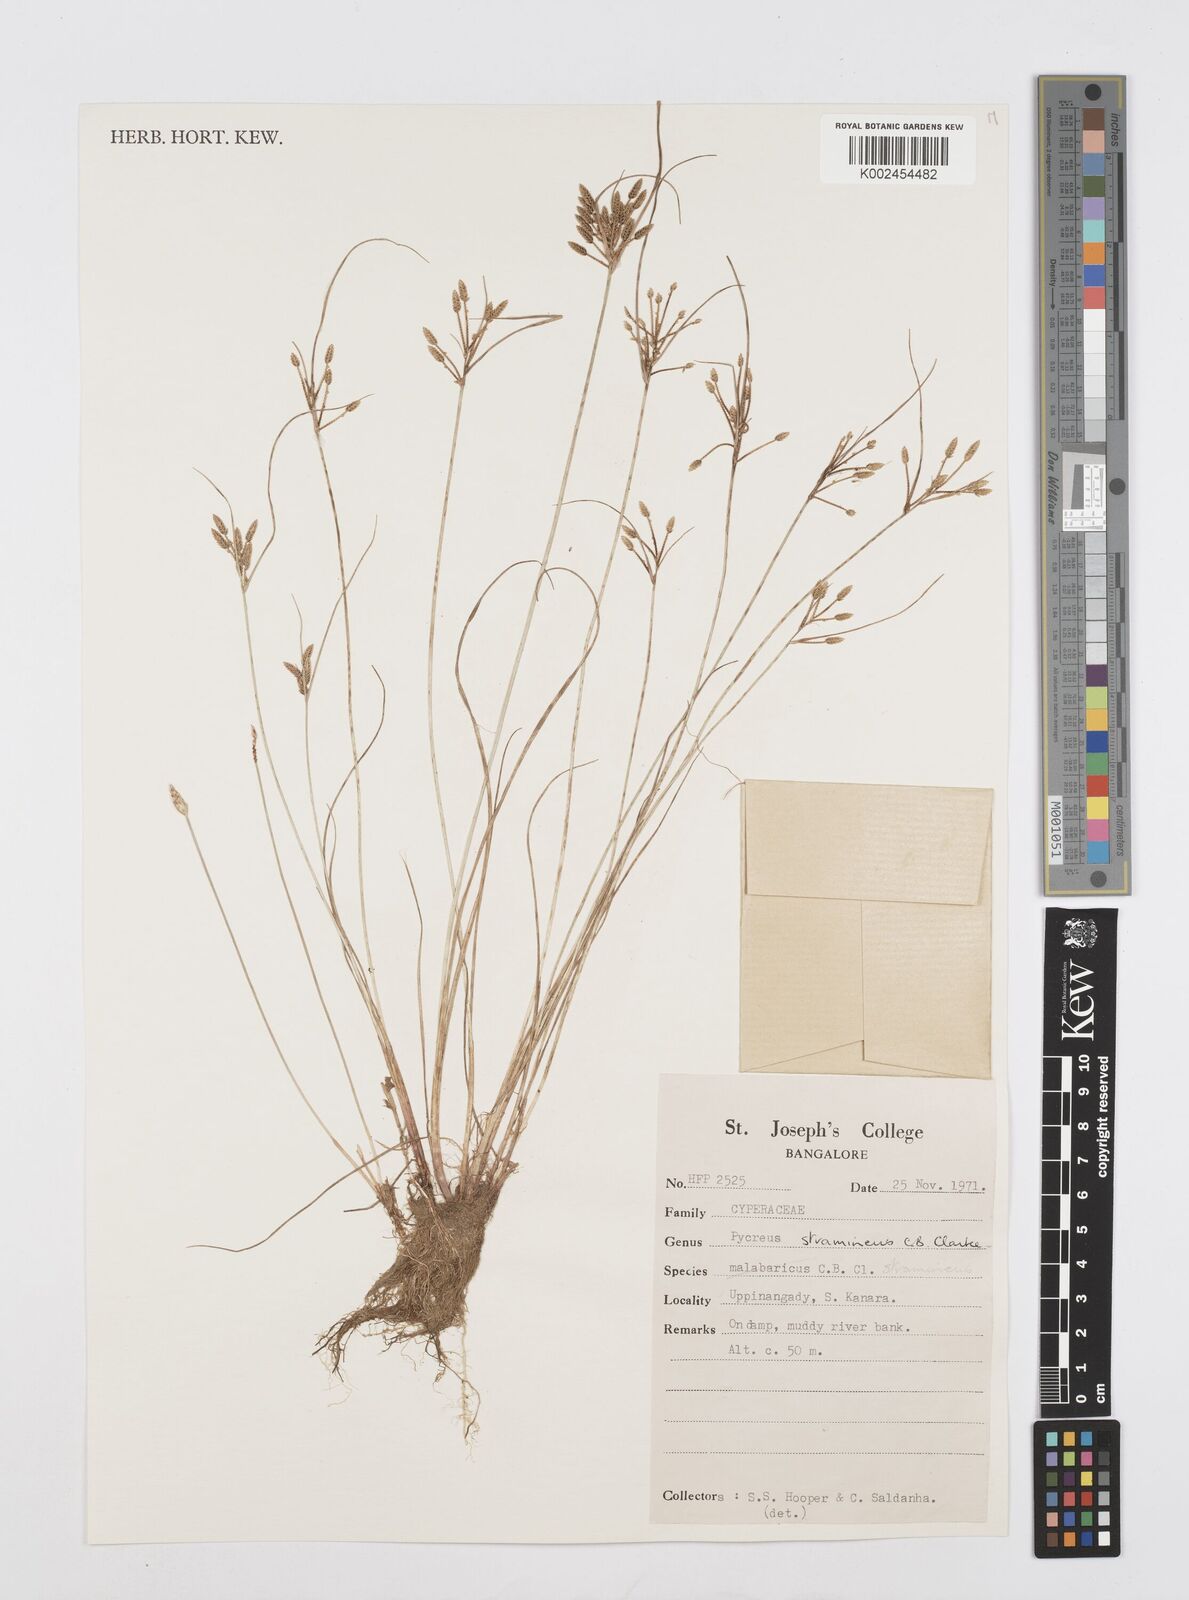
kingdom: Plantae
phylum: Tracheophyta
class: Liliopsida
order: Poales
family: Cyperaceae
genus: Cyperus
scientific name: Cyperus substramineus
